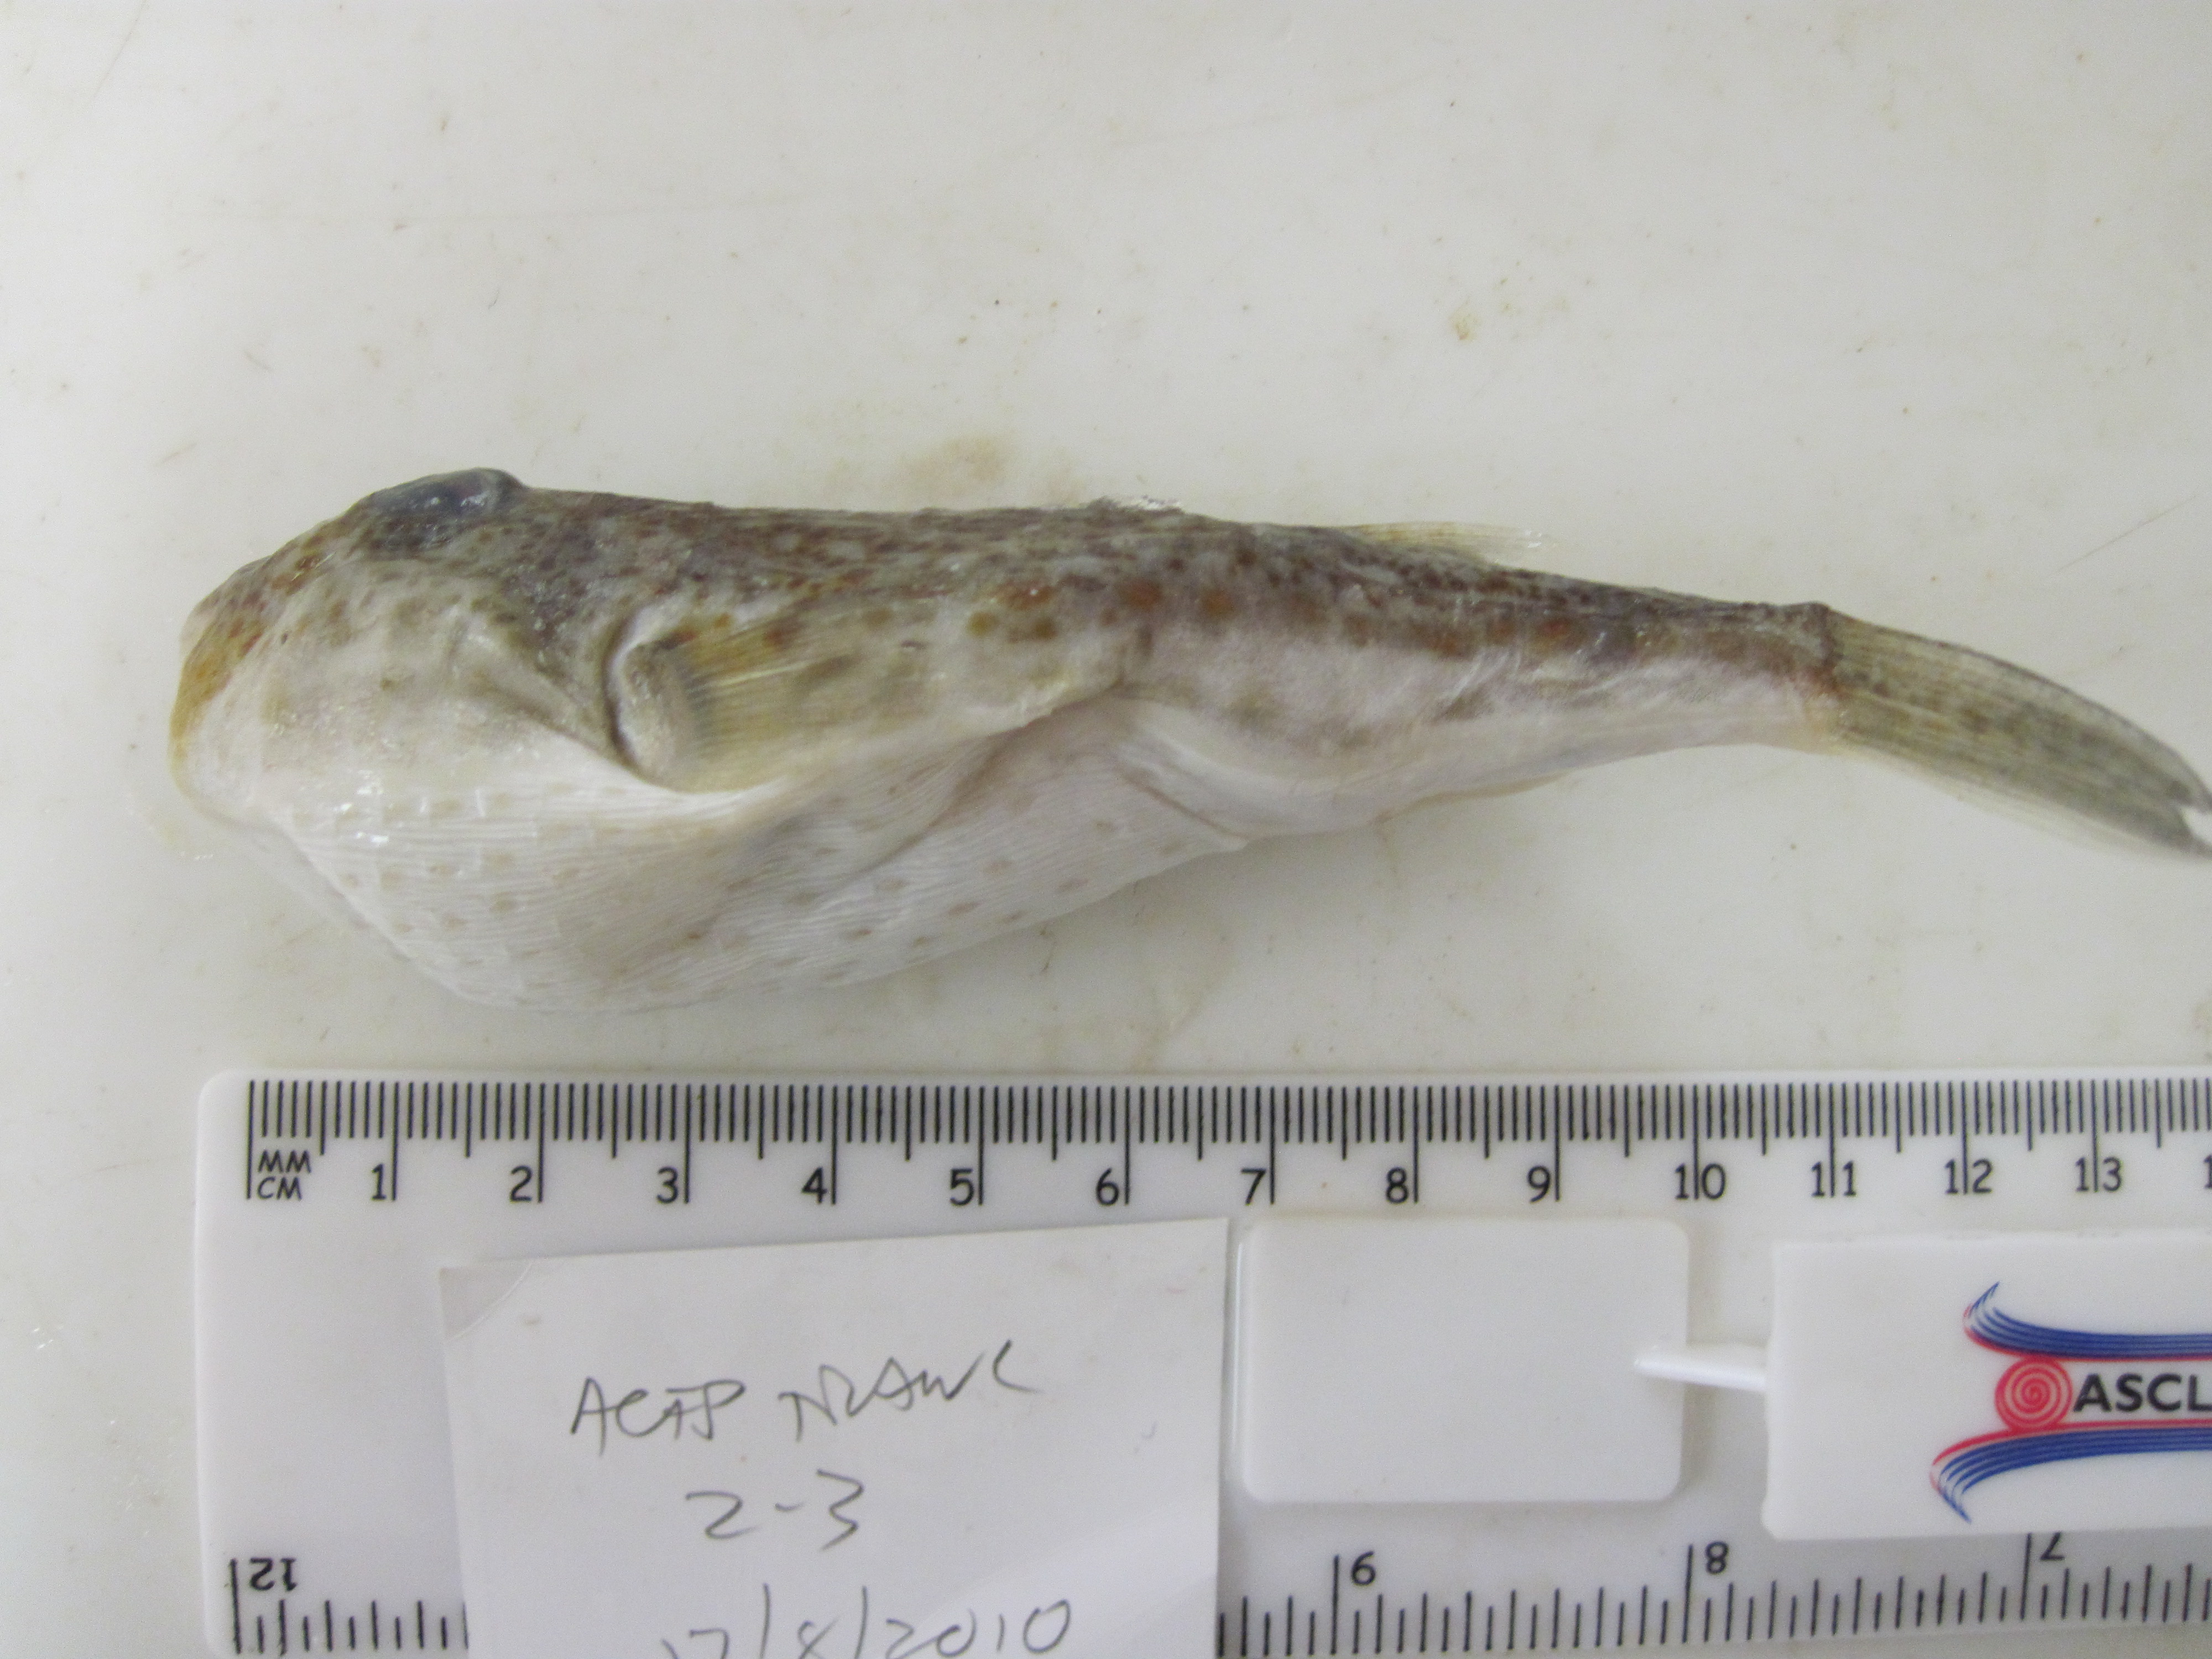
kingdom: Animalia
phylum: Chordata
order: Tetraodontiformes
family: Tetraodontidae
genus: Torquigener
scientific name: Torquigener hypselogeneion
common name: Cheek-barred toadfish
